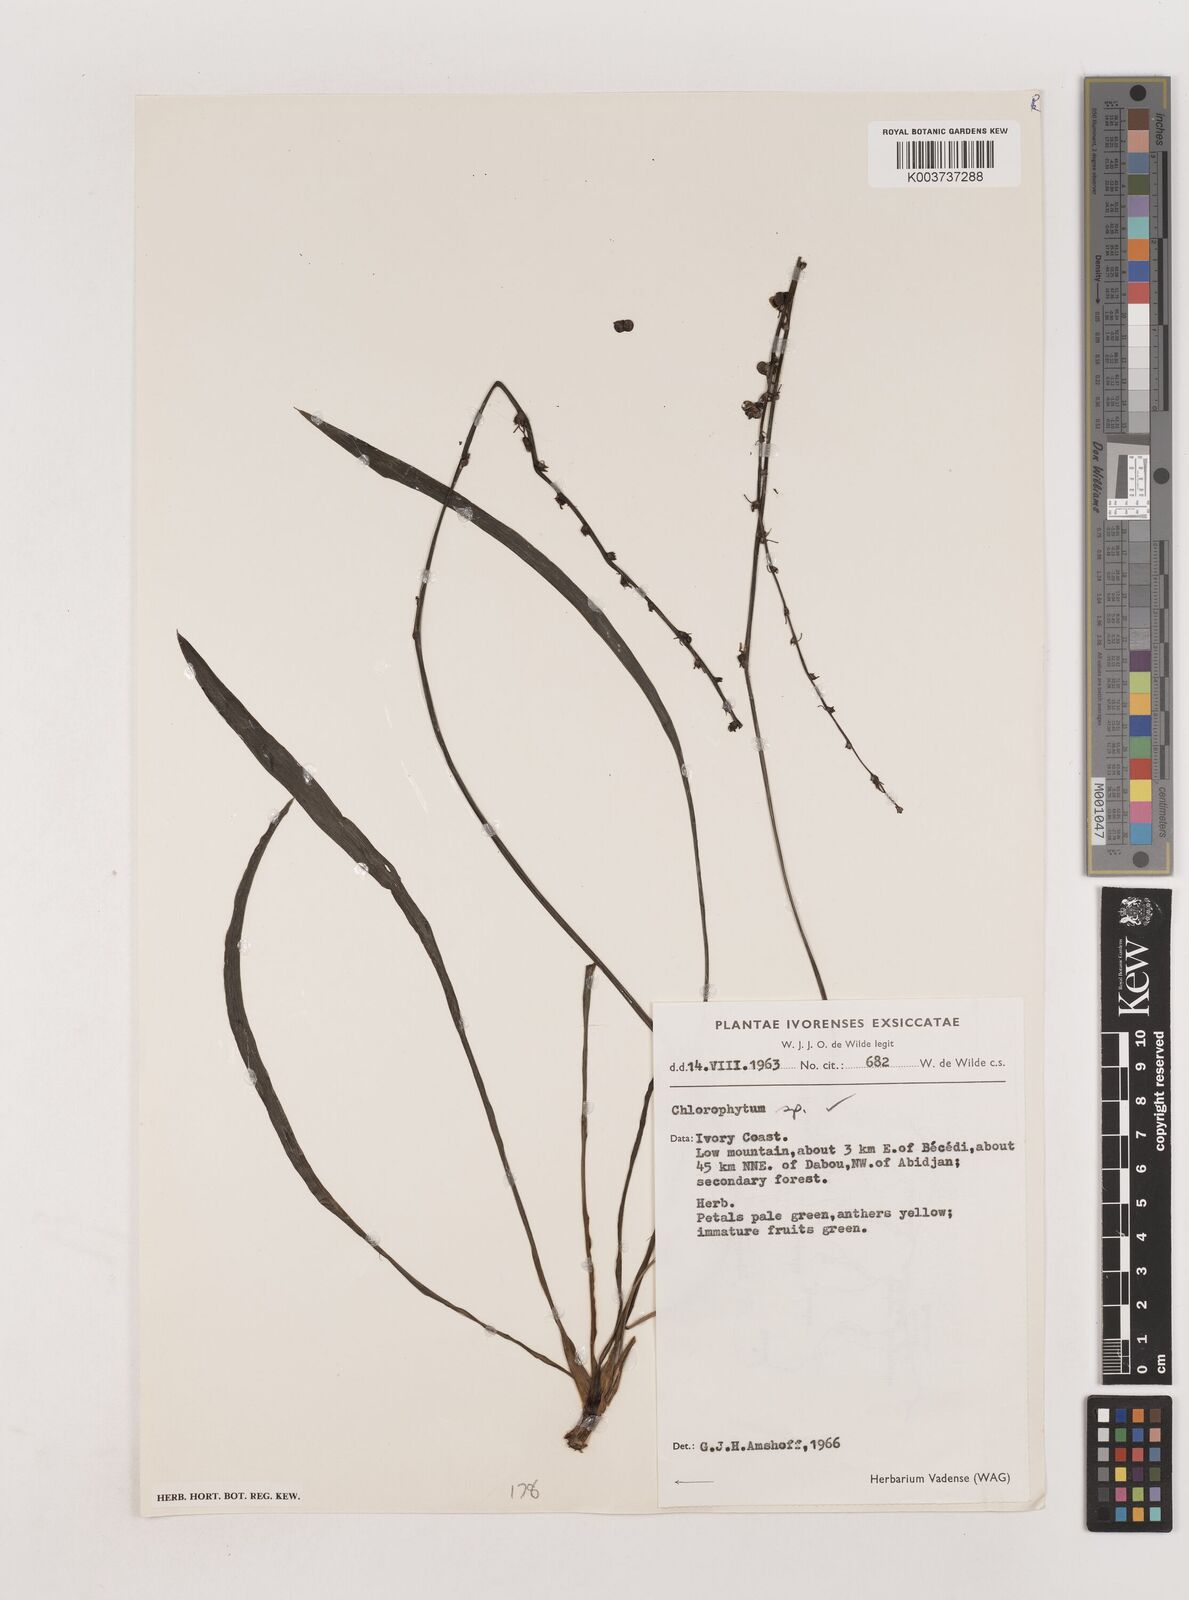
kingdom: Plantae
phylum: Tracheophyta
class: Liliopsida
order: Asparagales
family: Asparagaceae
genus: Chlorophytum
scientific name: Chlorophytum
